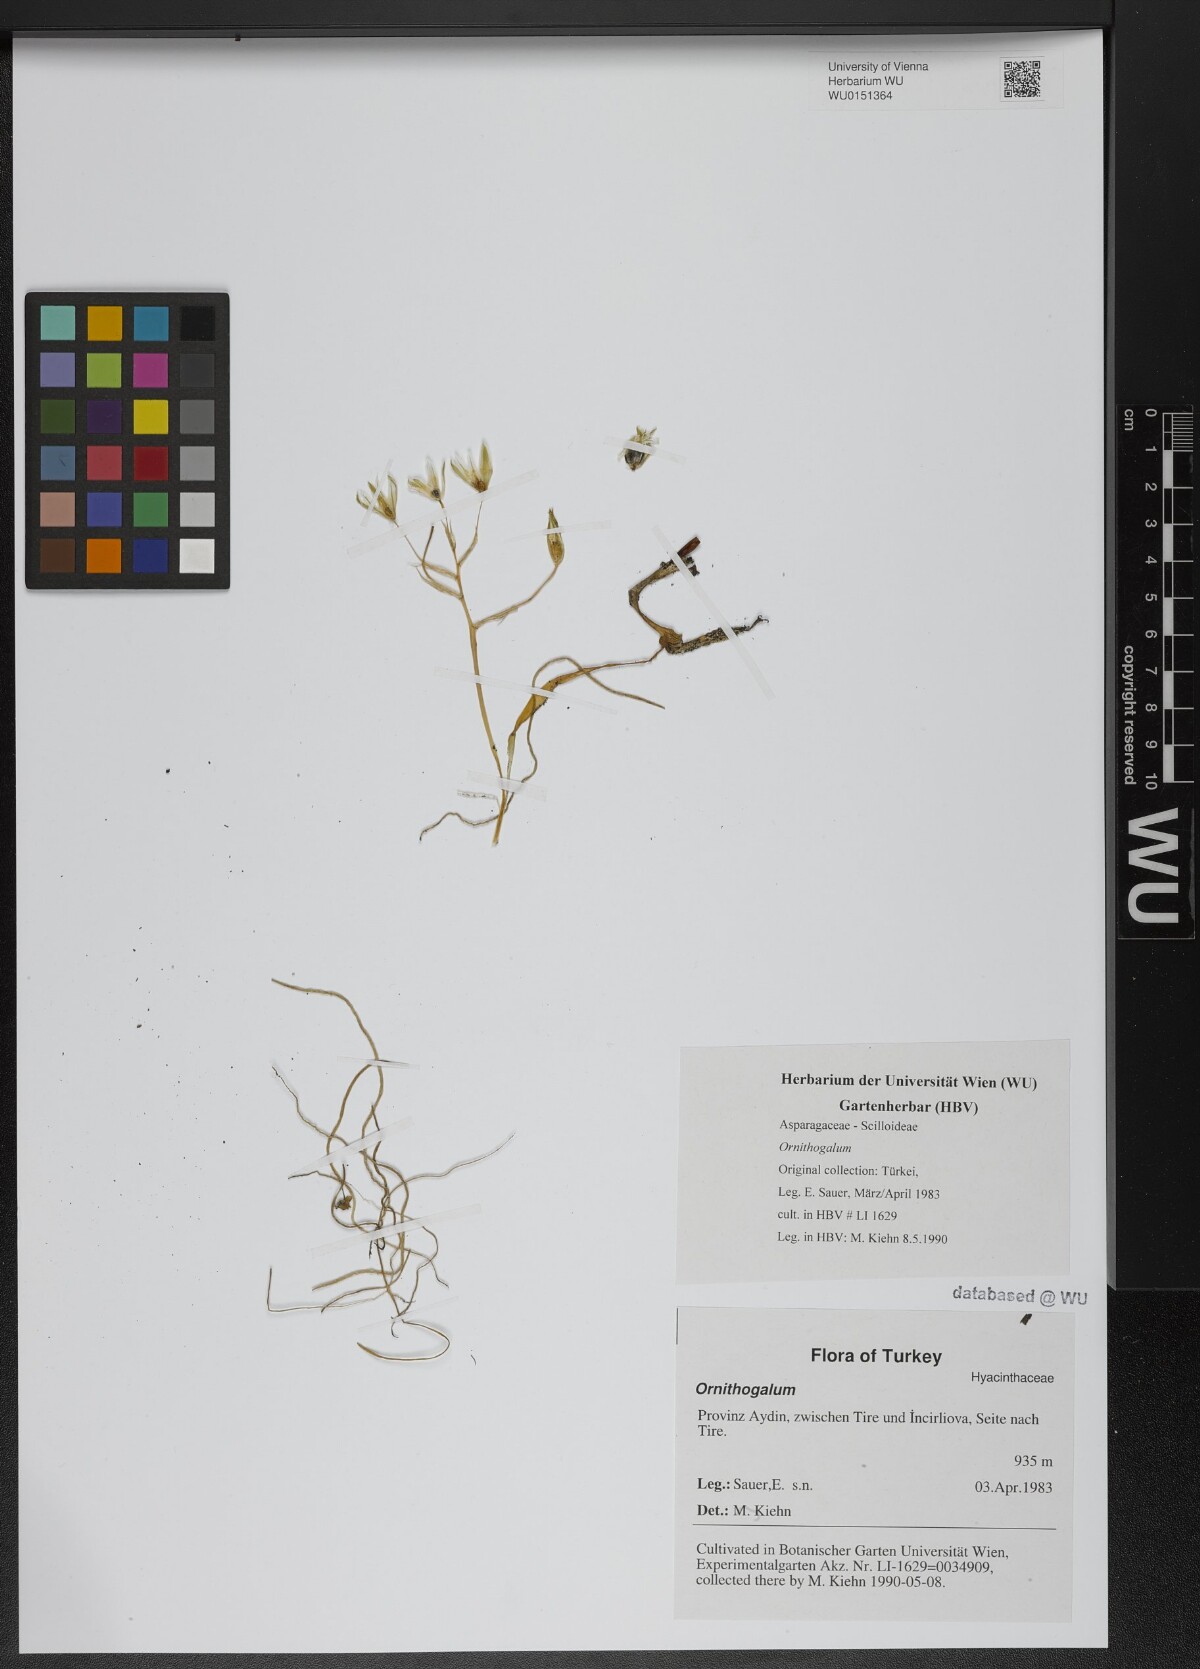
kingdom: Plantae
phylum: Tracheophyta
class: Liliopsida
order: Asparagales
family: Asparagaceae
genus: Ornithogalum
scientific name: Ornithogalum
